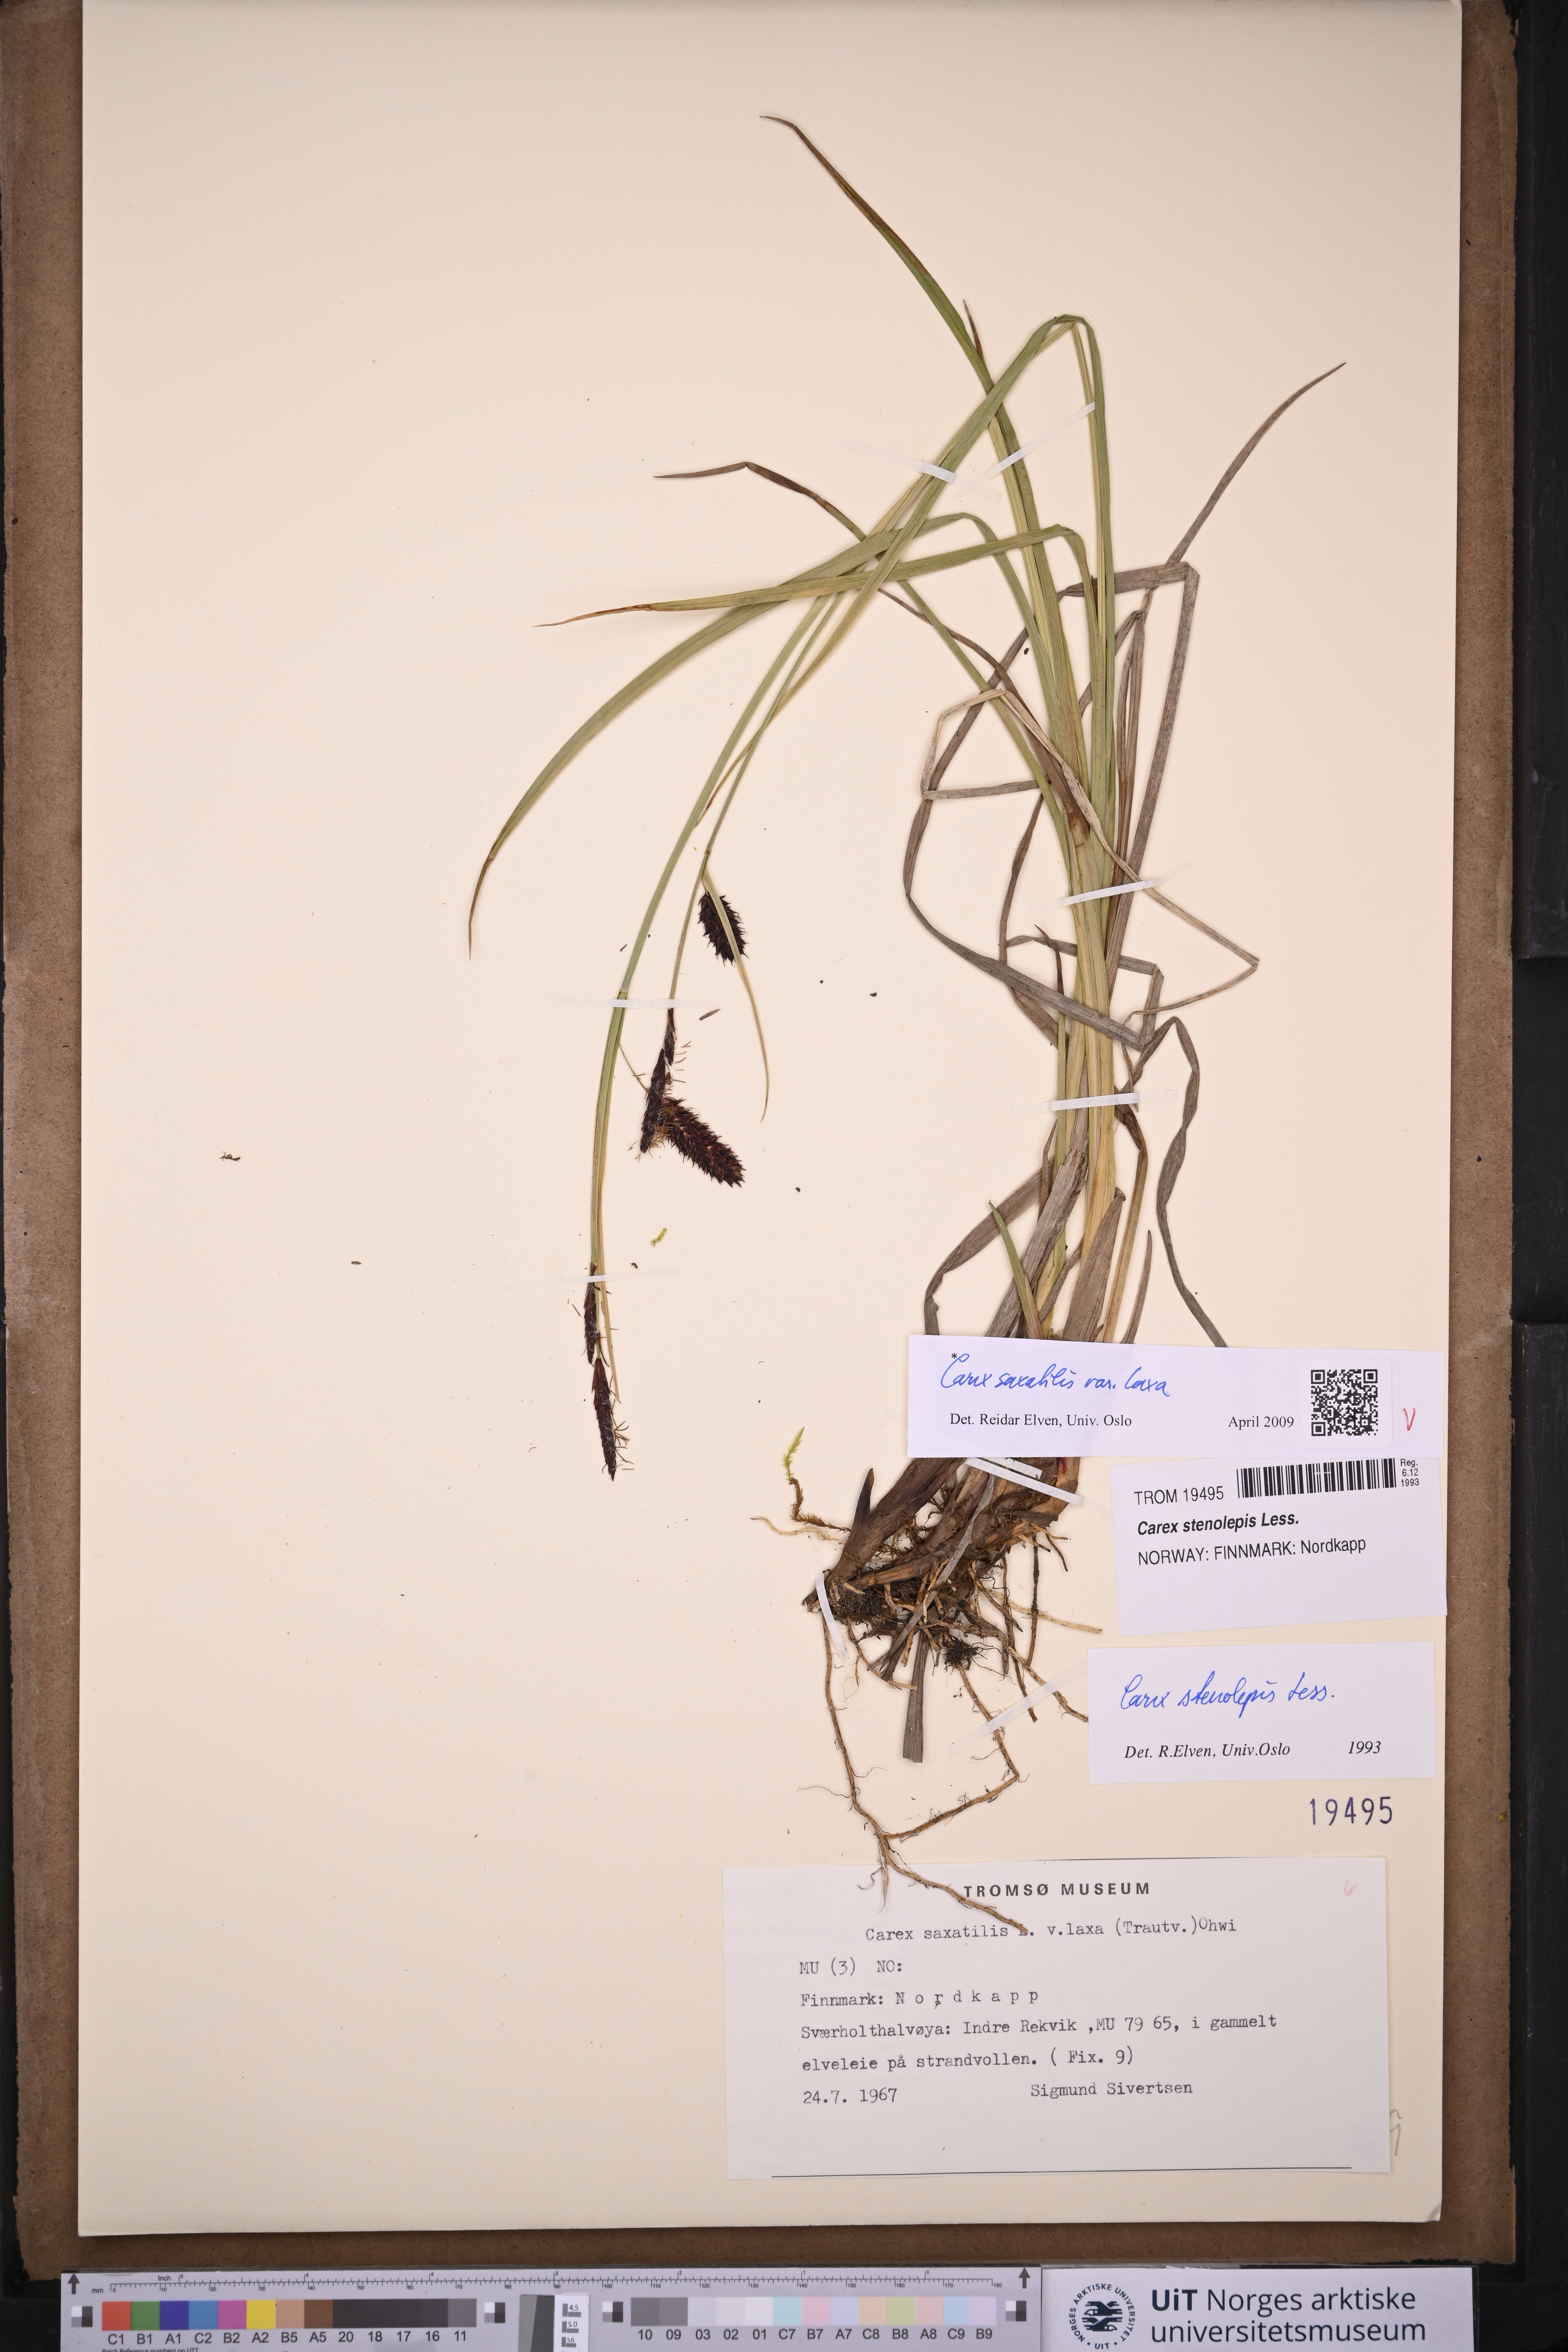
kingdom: Plantae
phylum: Tracheophyta
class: Liliopsida
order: Poales
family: Cyperaceae
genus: Carex
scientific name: Carex saxatilis
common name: Russet sedge
